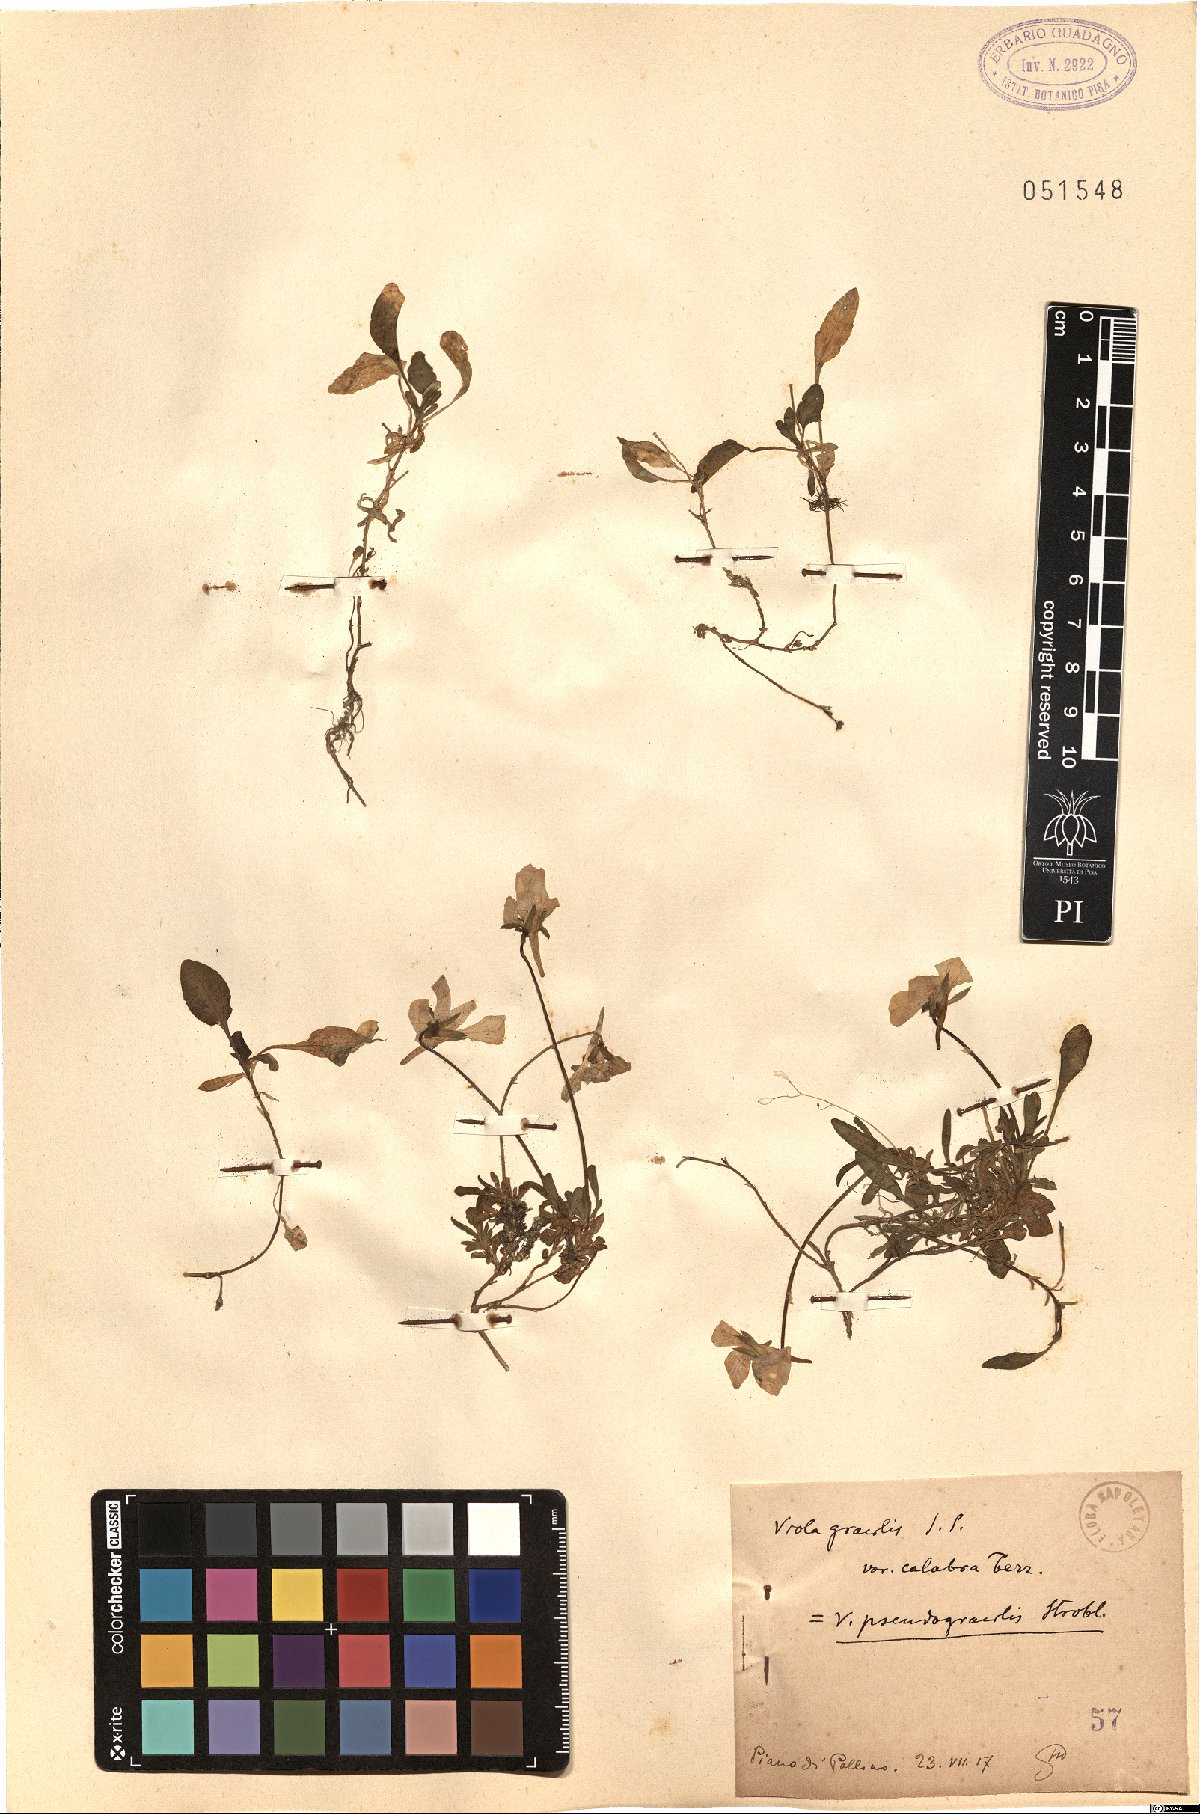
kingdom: Plantae
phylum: Tracheophyta
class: Magnoliopsida
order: Malpighiales
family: Violaceae
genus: Viola
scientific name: Viola pseudogracilis
